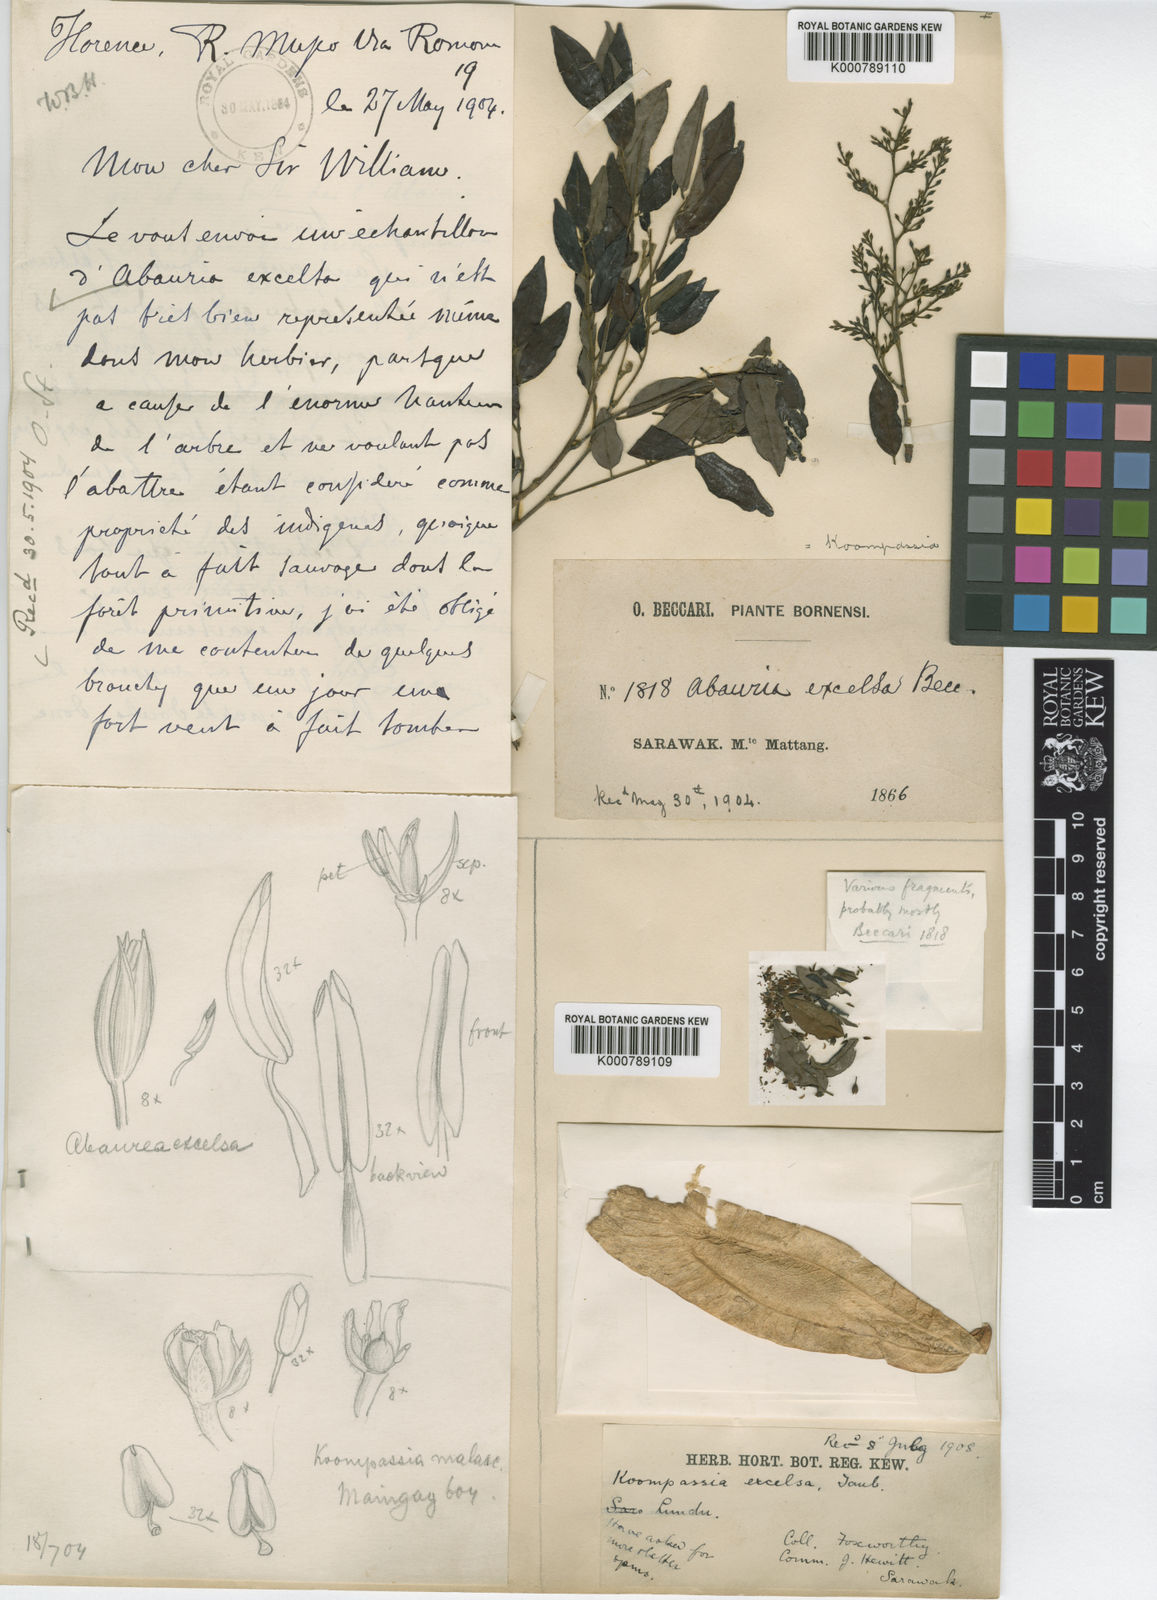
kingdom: Plantae
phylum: Tracheophyta
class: Magnoliopsida
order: Fabales
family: Fabaceae
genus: Koompassia
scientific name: Koompassia excelsa
